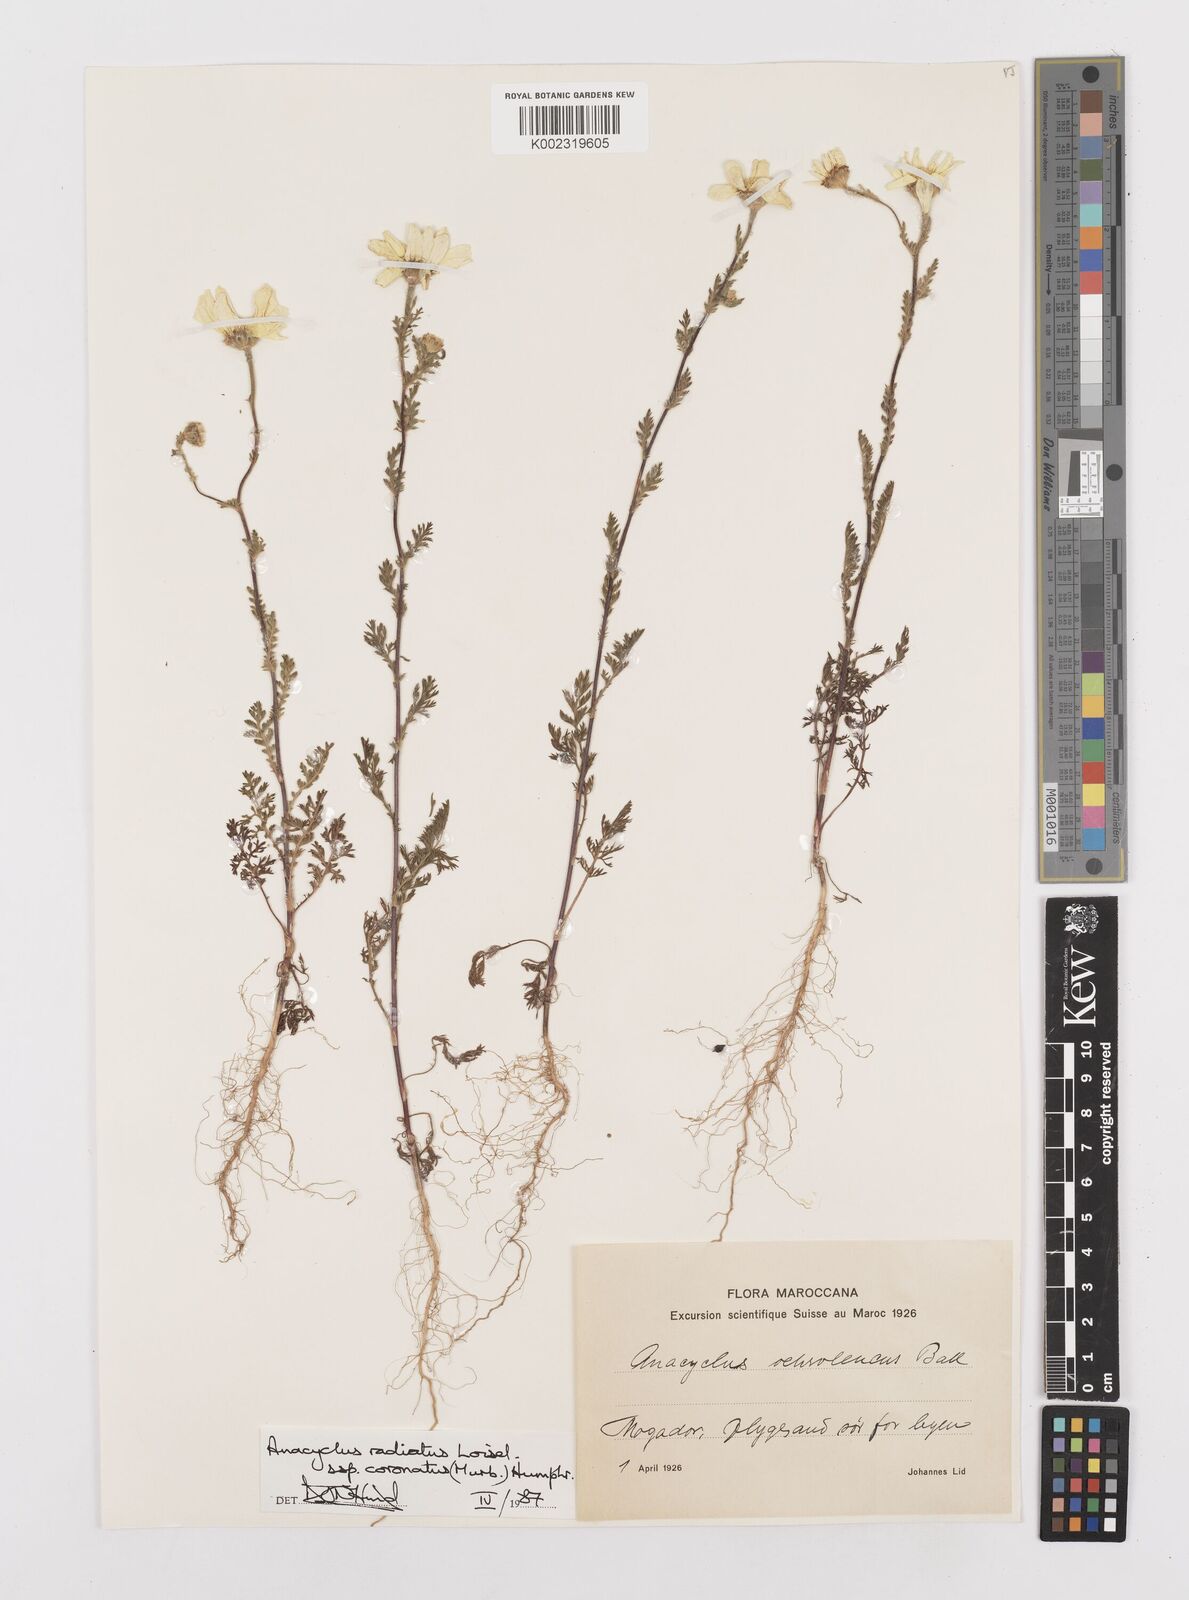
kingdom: Plantae
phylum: Tracheophyta
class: Magnoliopsida
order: Asterales
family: Asteraceae
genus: Anacyclus
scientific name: Anacyclus radiatus
